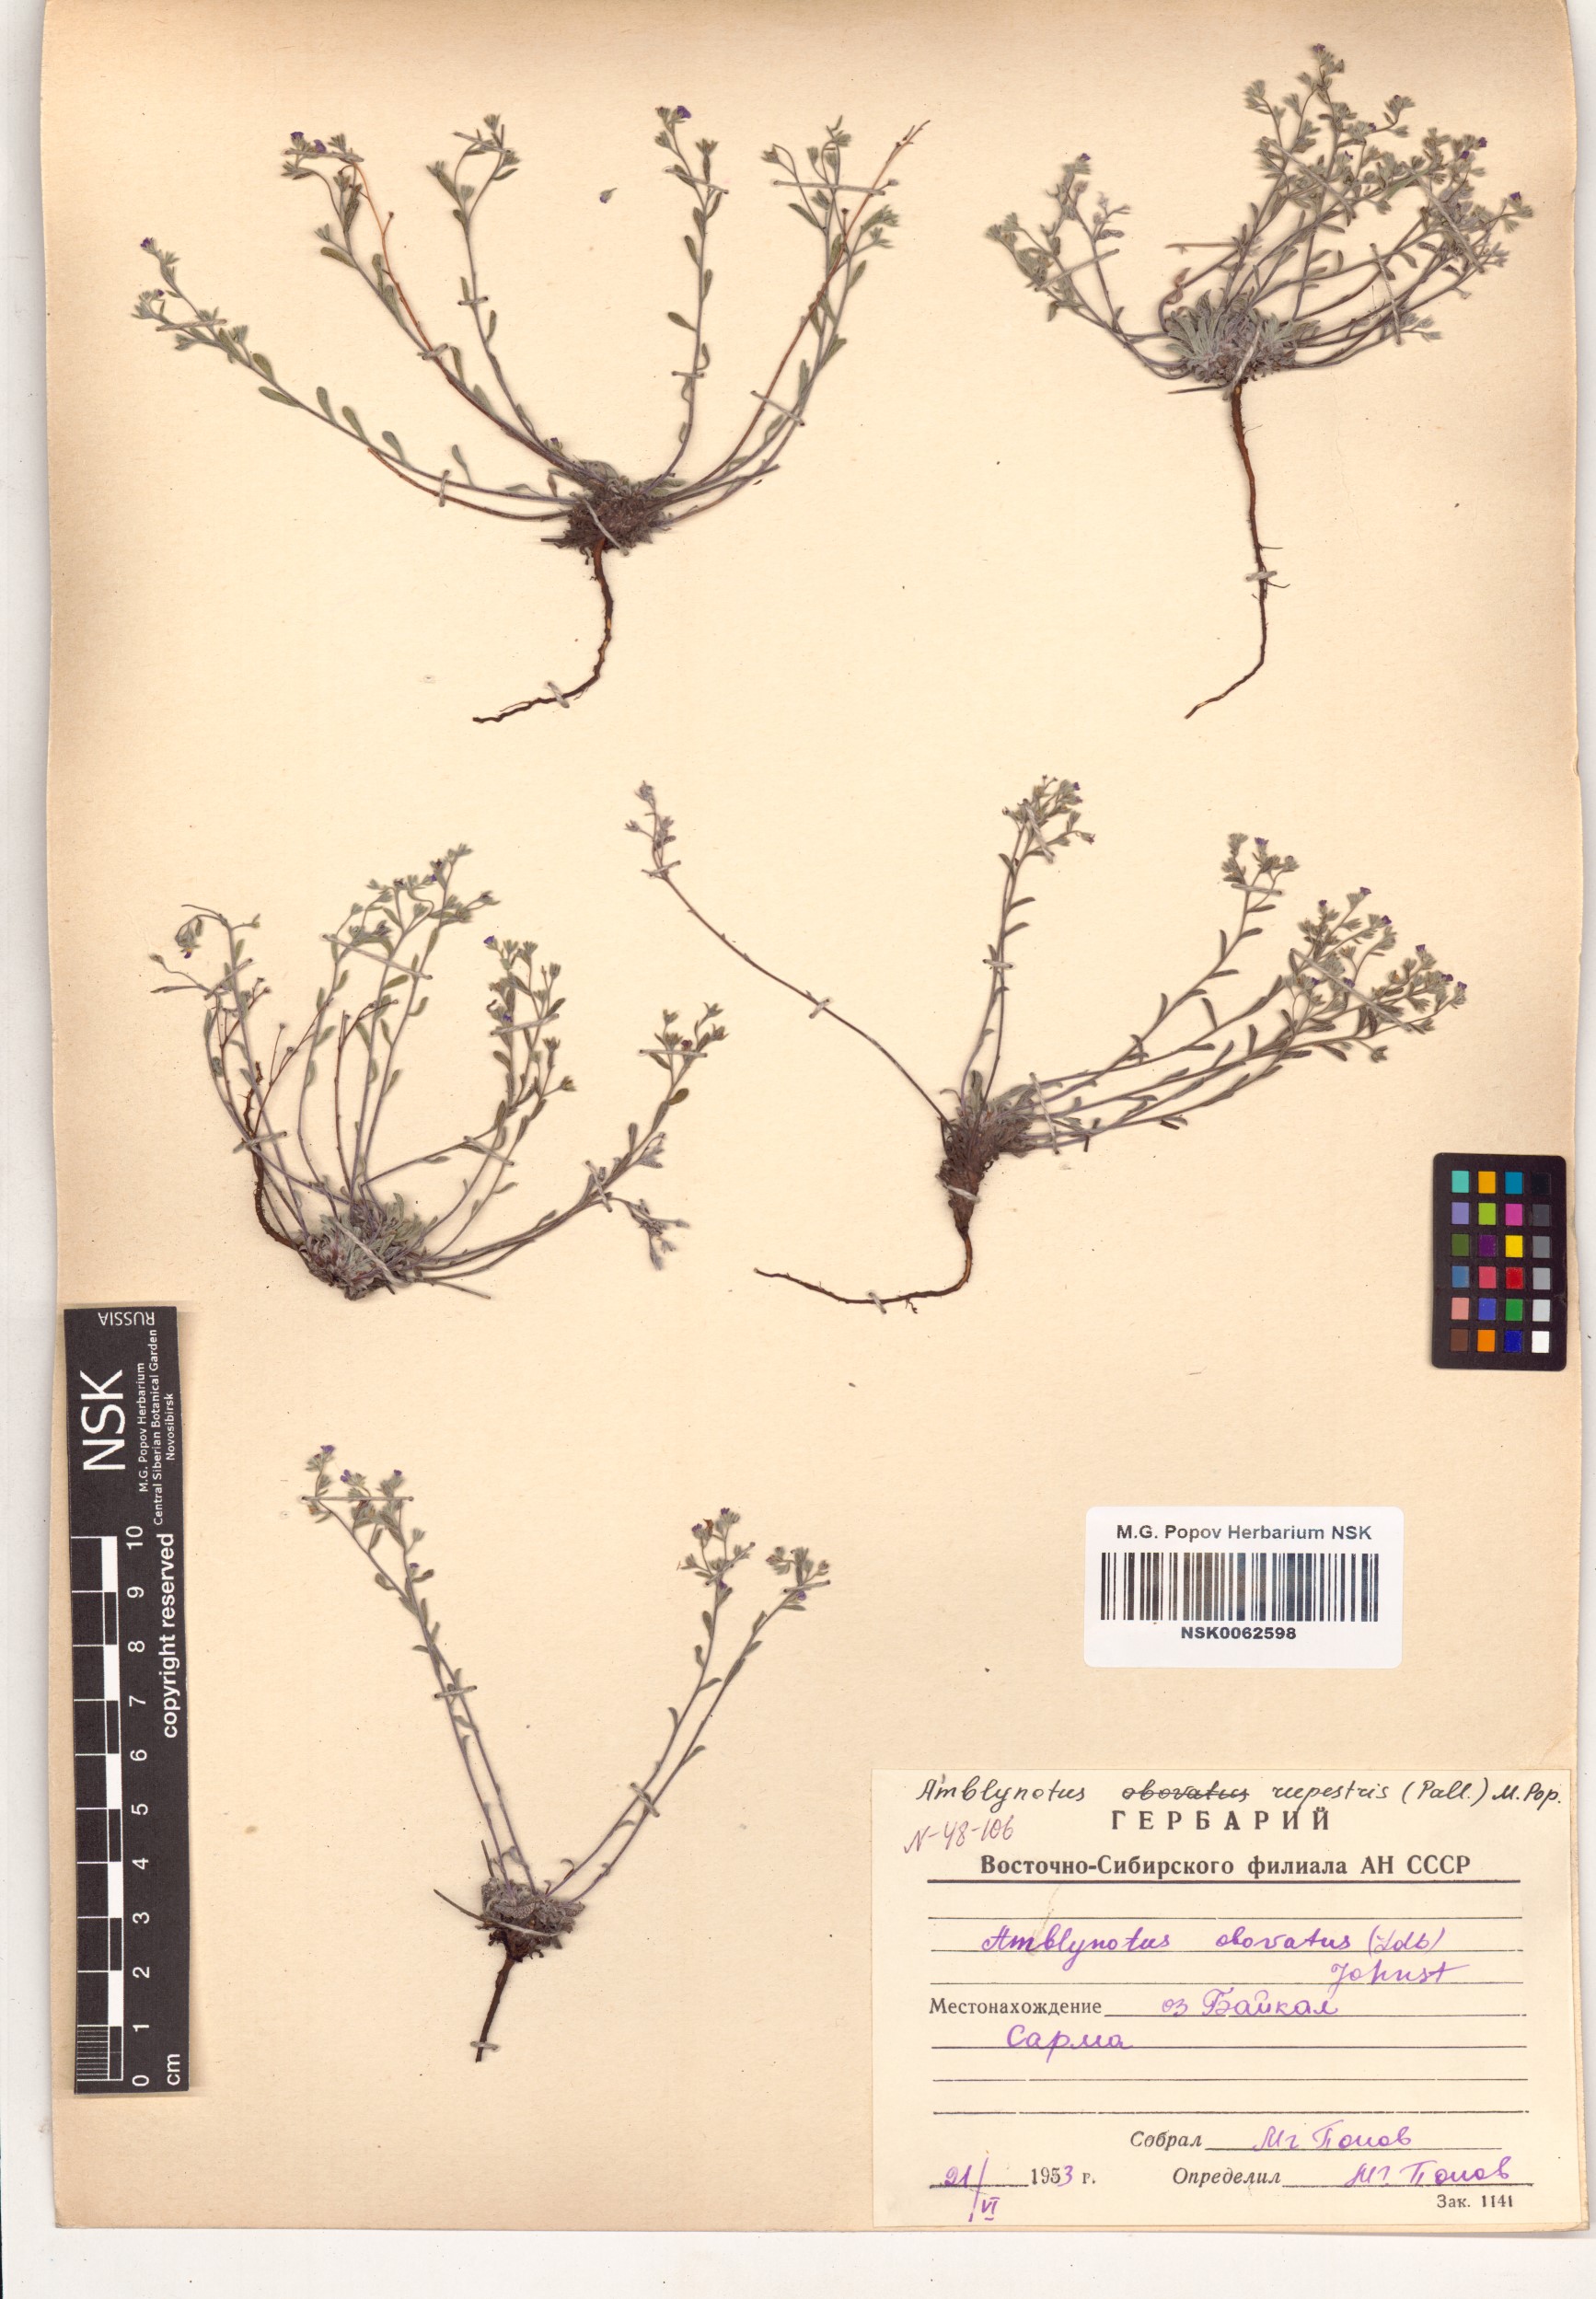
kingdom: Plantae
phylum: Tracheophyta
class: Magnoliopsida
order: Boraginales
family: Boraginaceae
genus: Eritrichium
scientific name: Eritrichium rupestre
